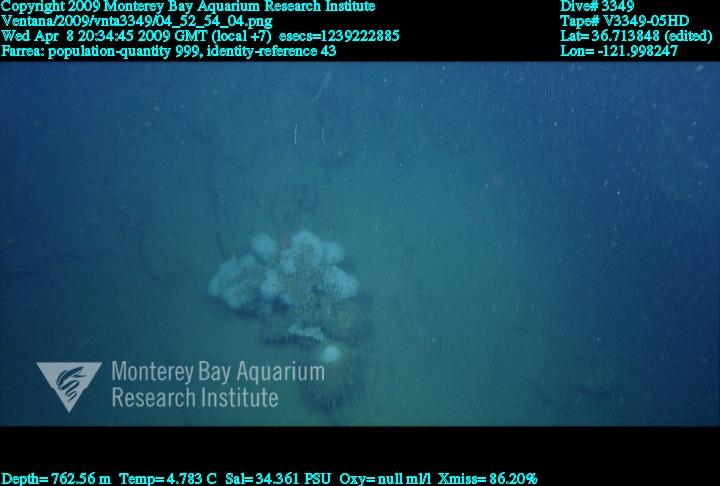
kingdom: Animalia
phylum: Porifera
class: Hexactinellida
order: Sceptrulophora
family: Farreidae
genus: Farrea
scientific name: Farrea
